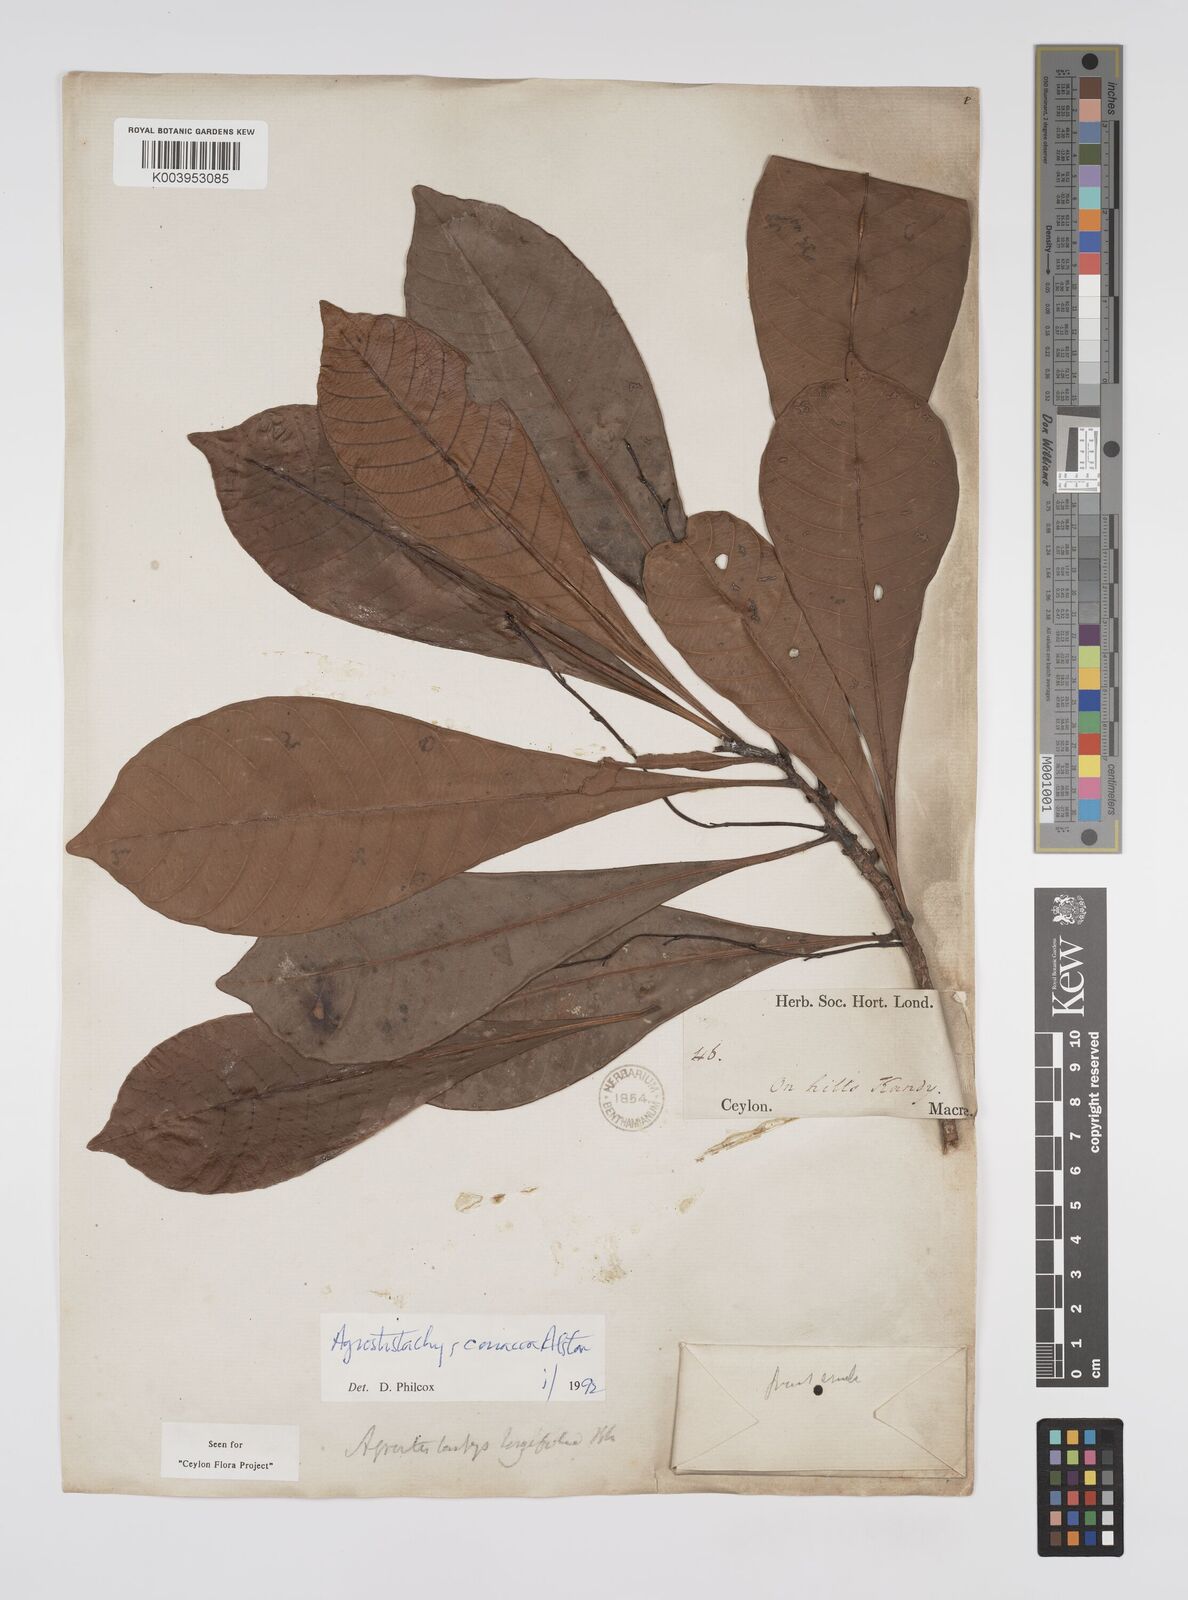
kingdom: Plantae
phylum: Tracheophyta
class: Magnoliopsida
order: Malpighiales
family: Euphorbiaceae
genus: Agrostistachys
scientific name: Agrostistachys borneensis
